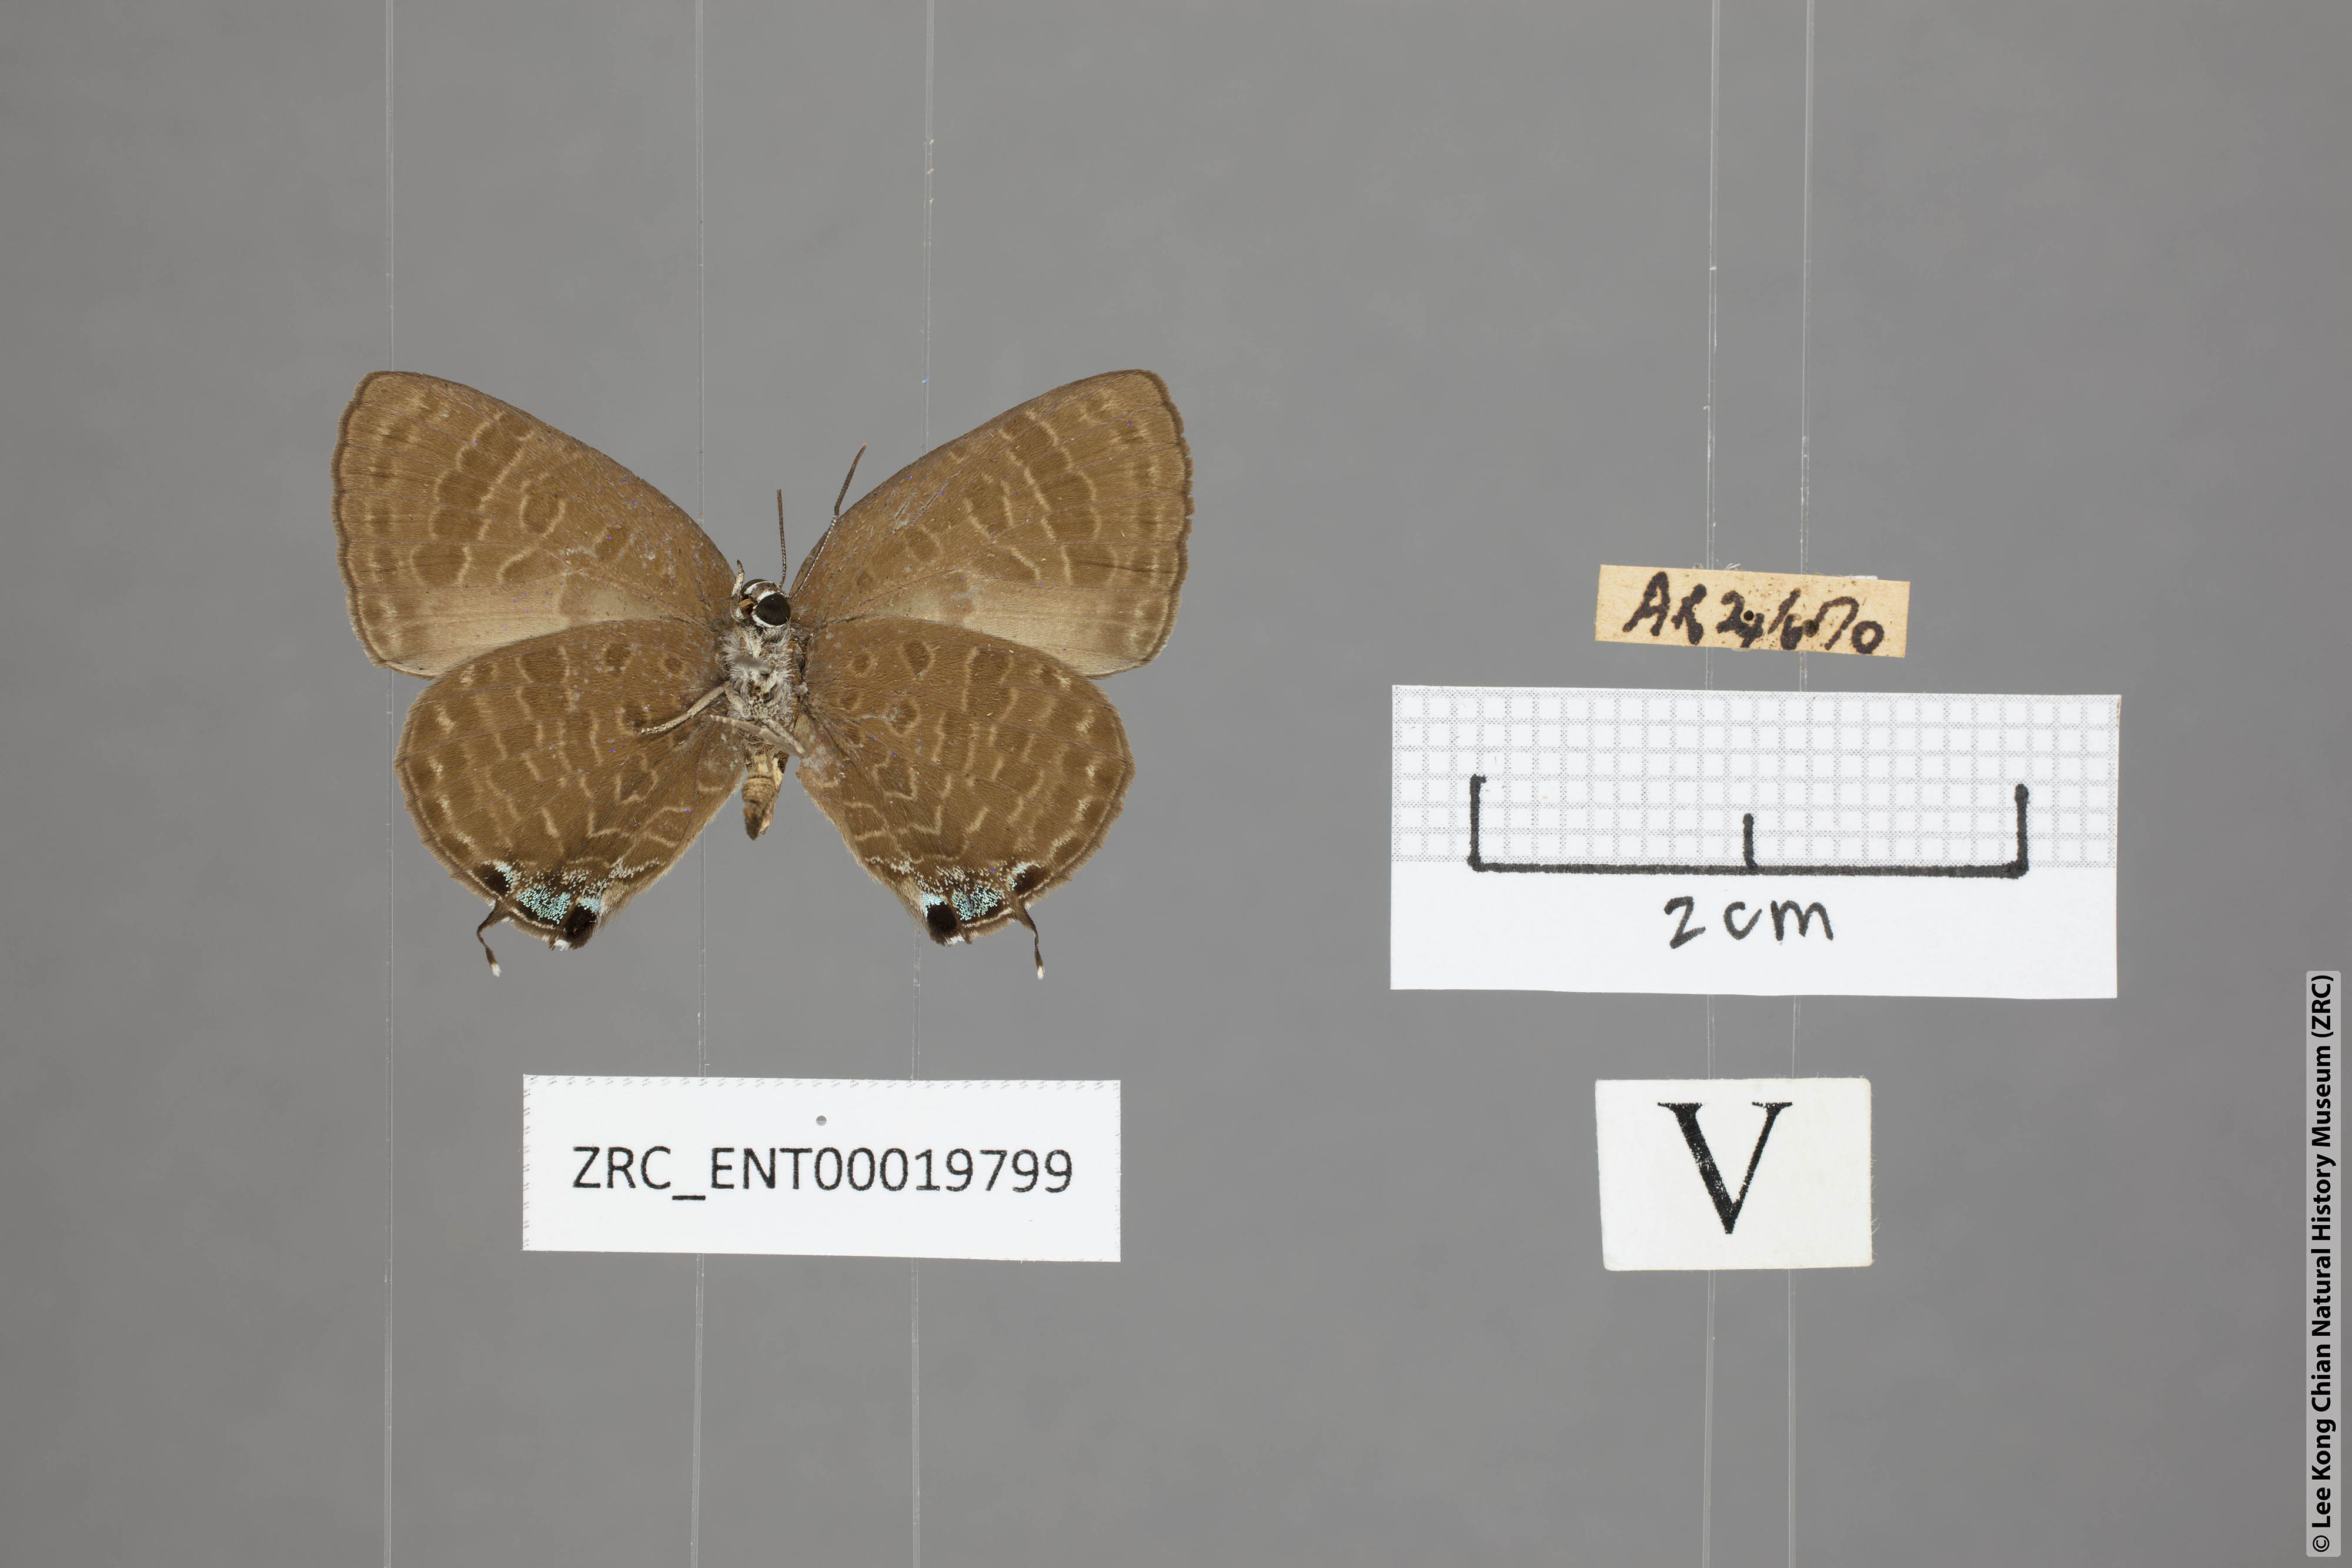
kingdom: Animalia
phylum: Arthropoda
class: Insecta
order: Lepidoptera
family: Lycaenidae
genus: Arhopala
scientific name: Arhopala phaenops
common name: Sumatran oakblue
